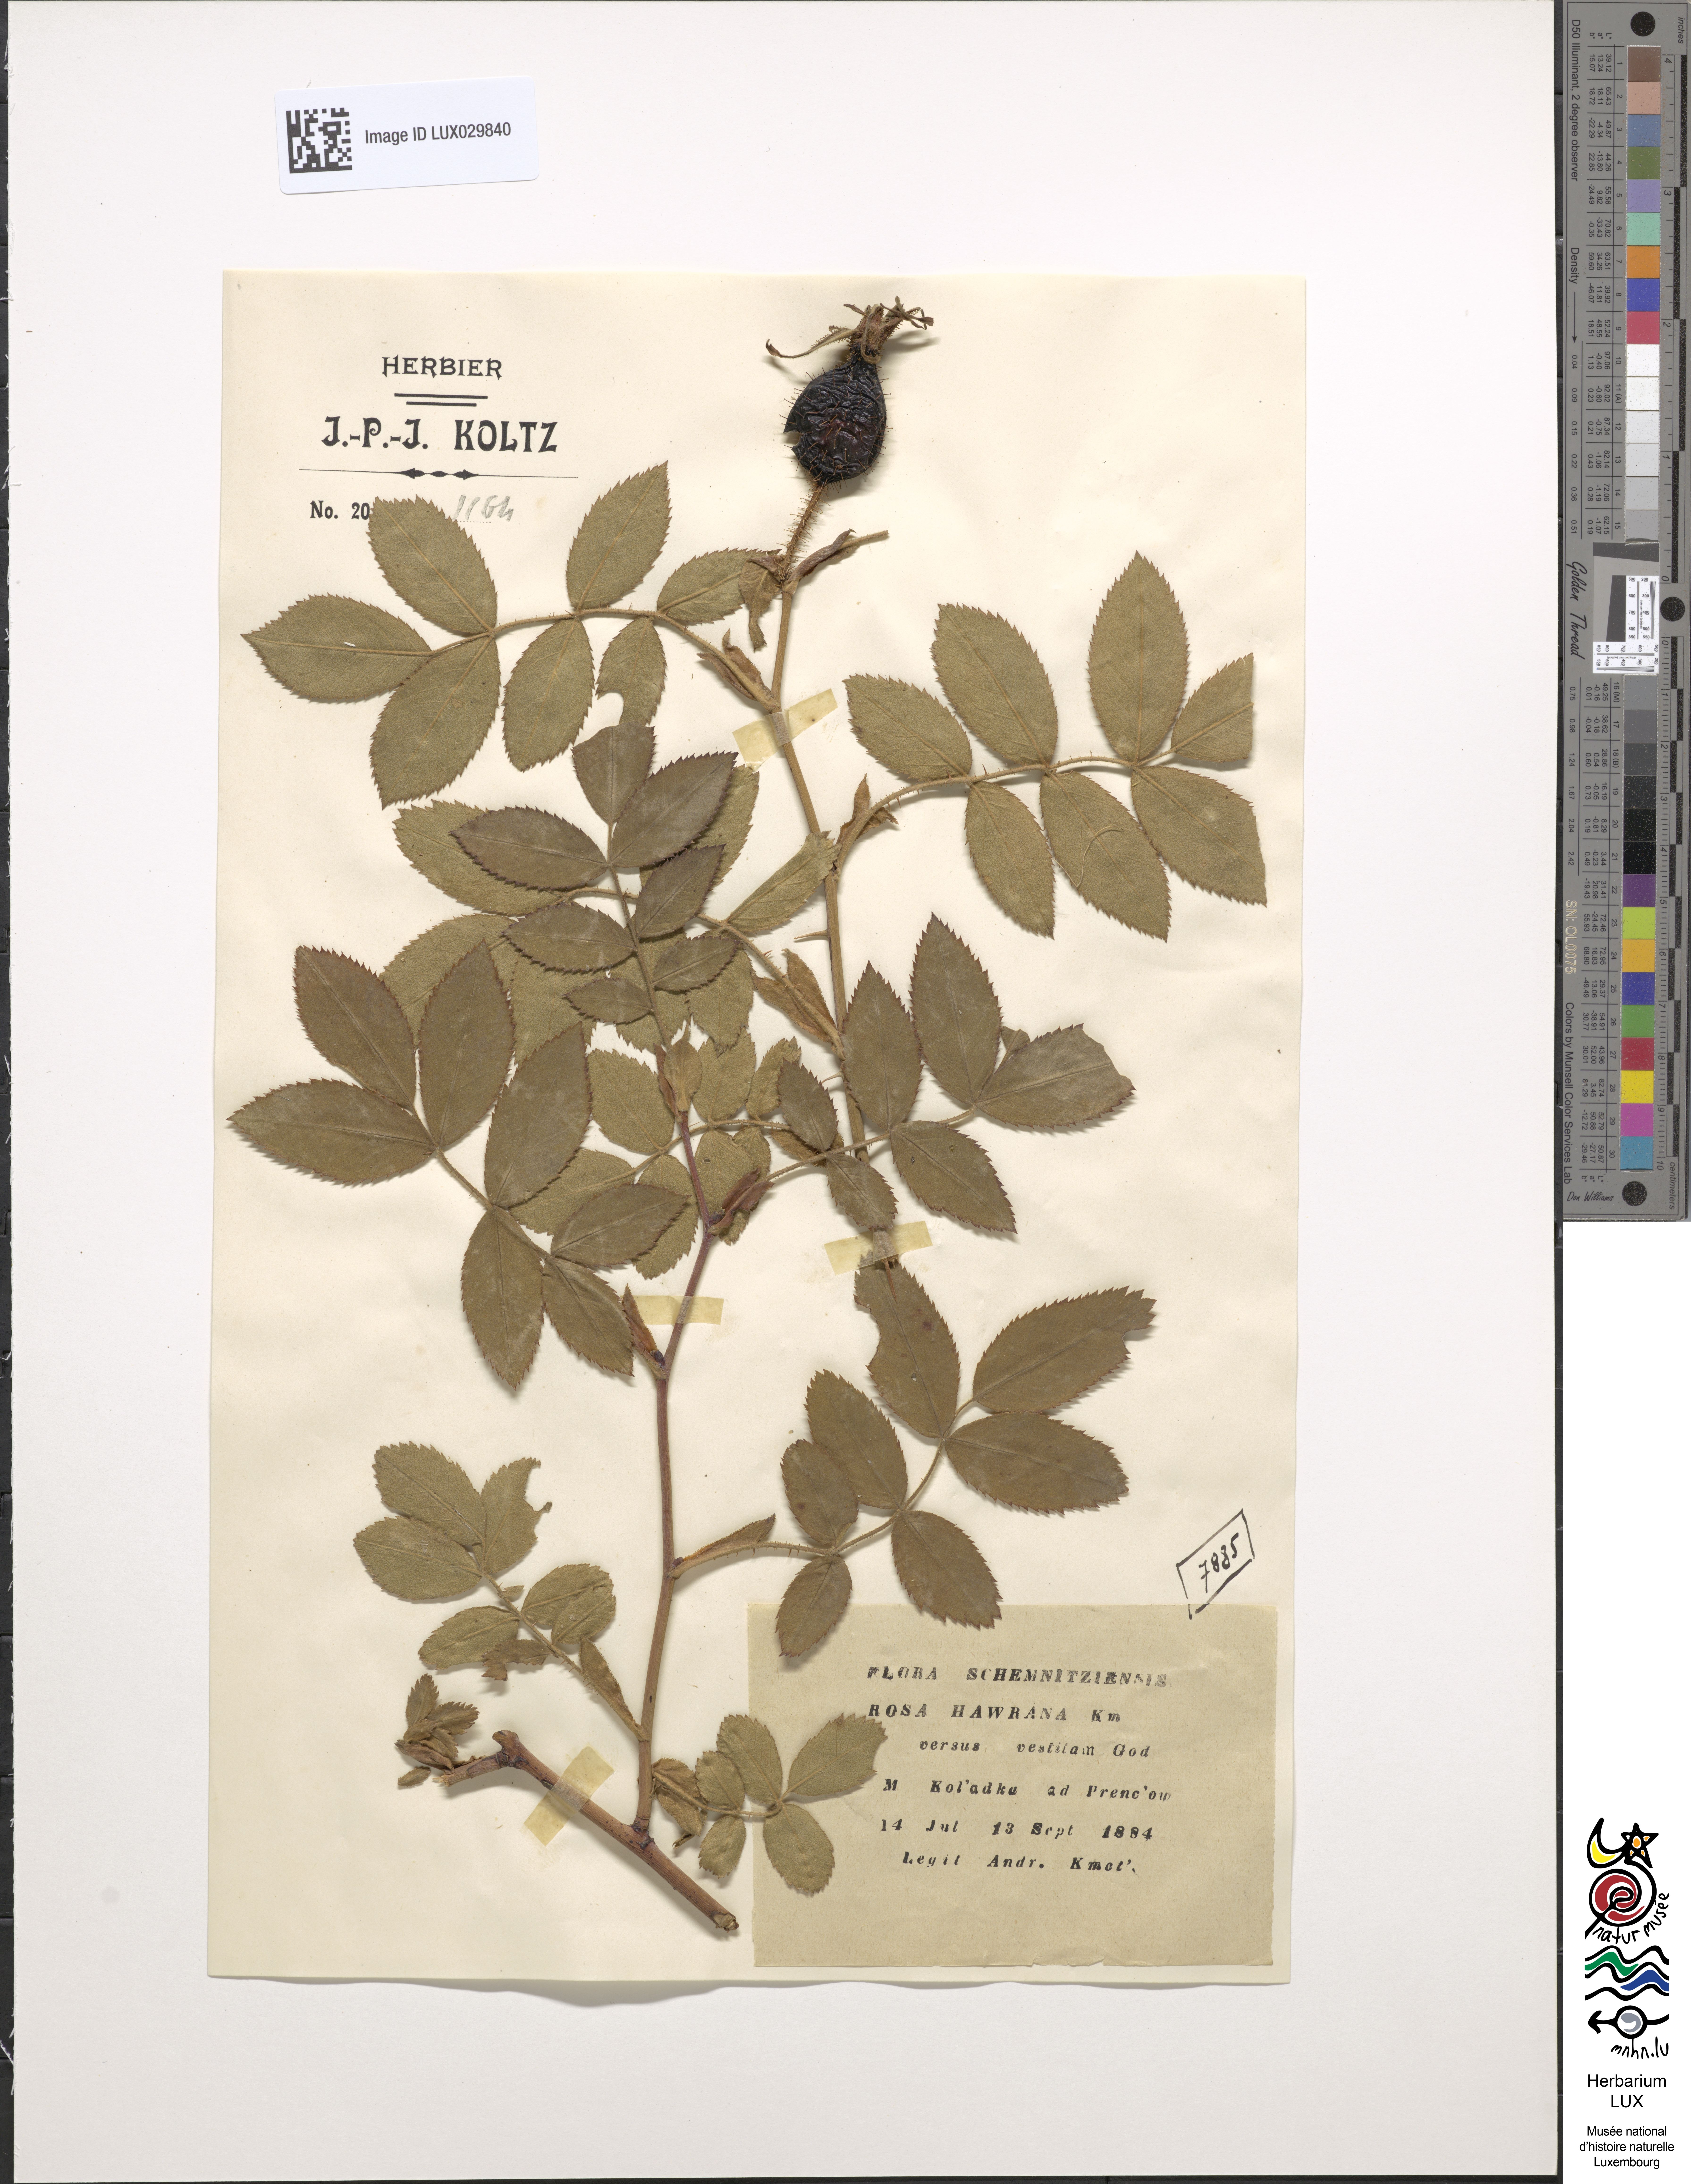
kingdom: Plantae
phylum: Tracheophyta
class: Magnoliopsida
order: Rosales
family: Rosaceae
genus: Rosa
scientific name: Rosa pseudoscabriuscula
